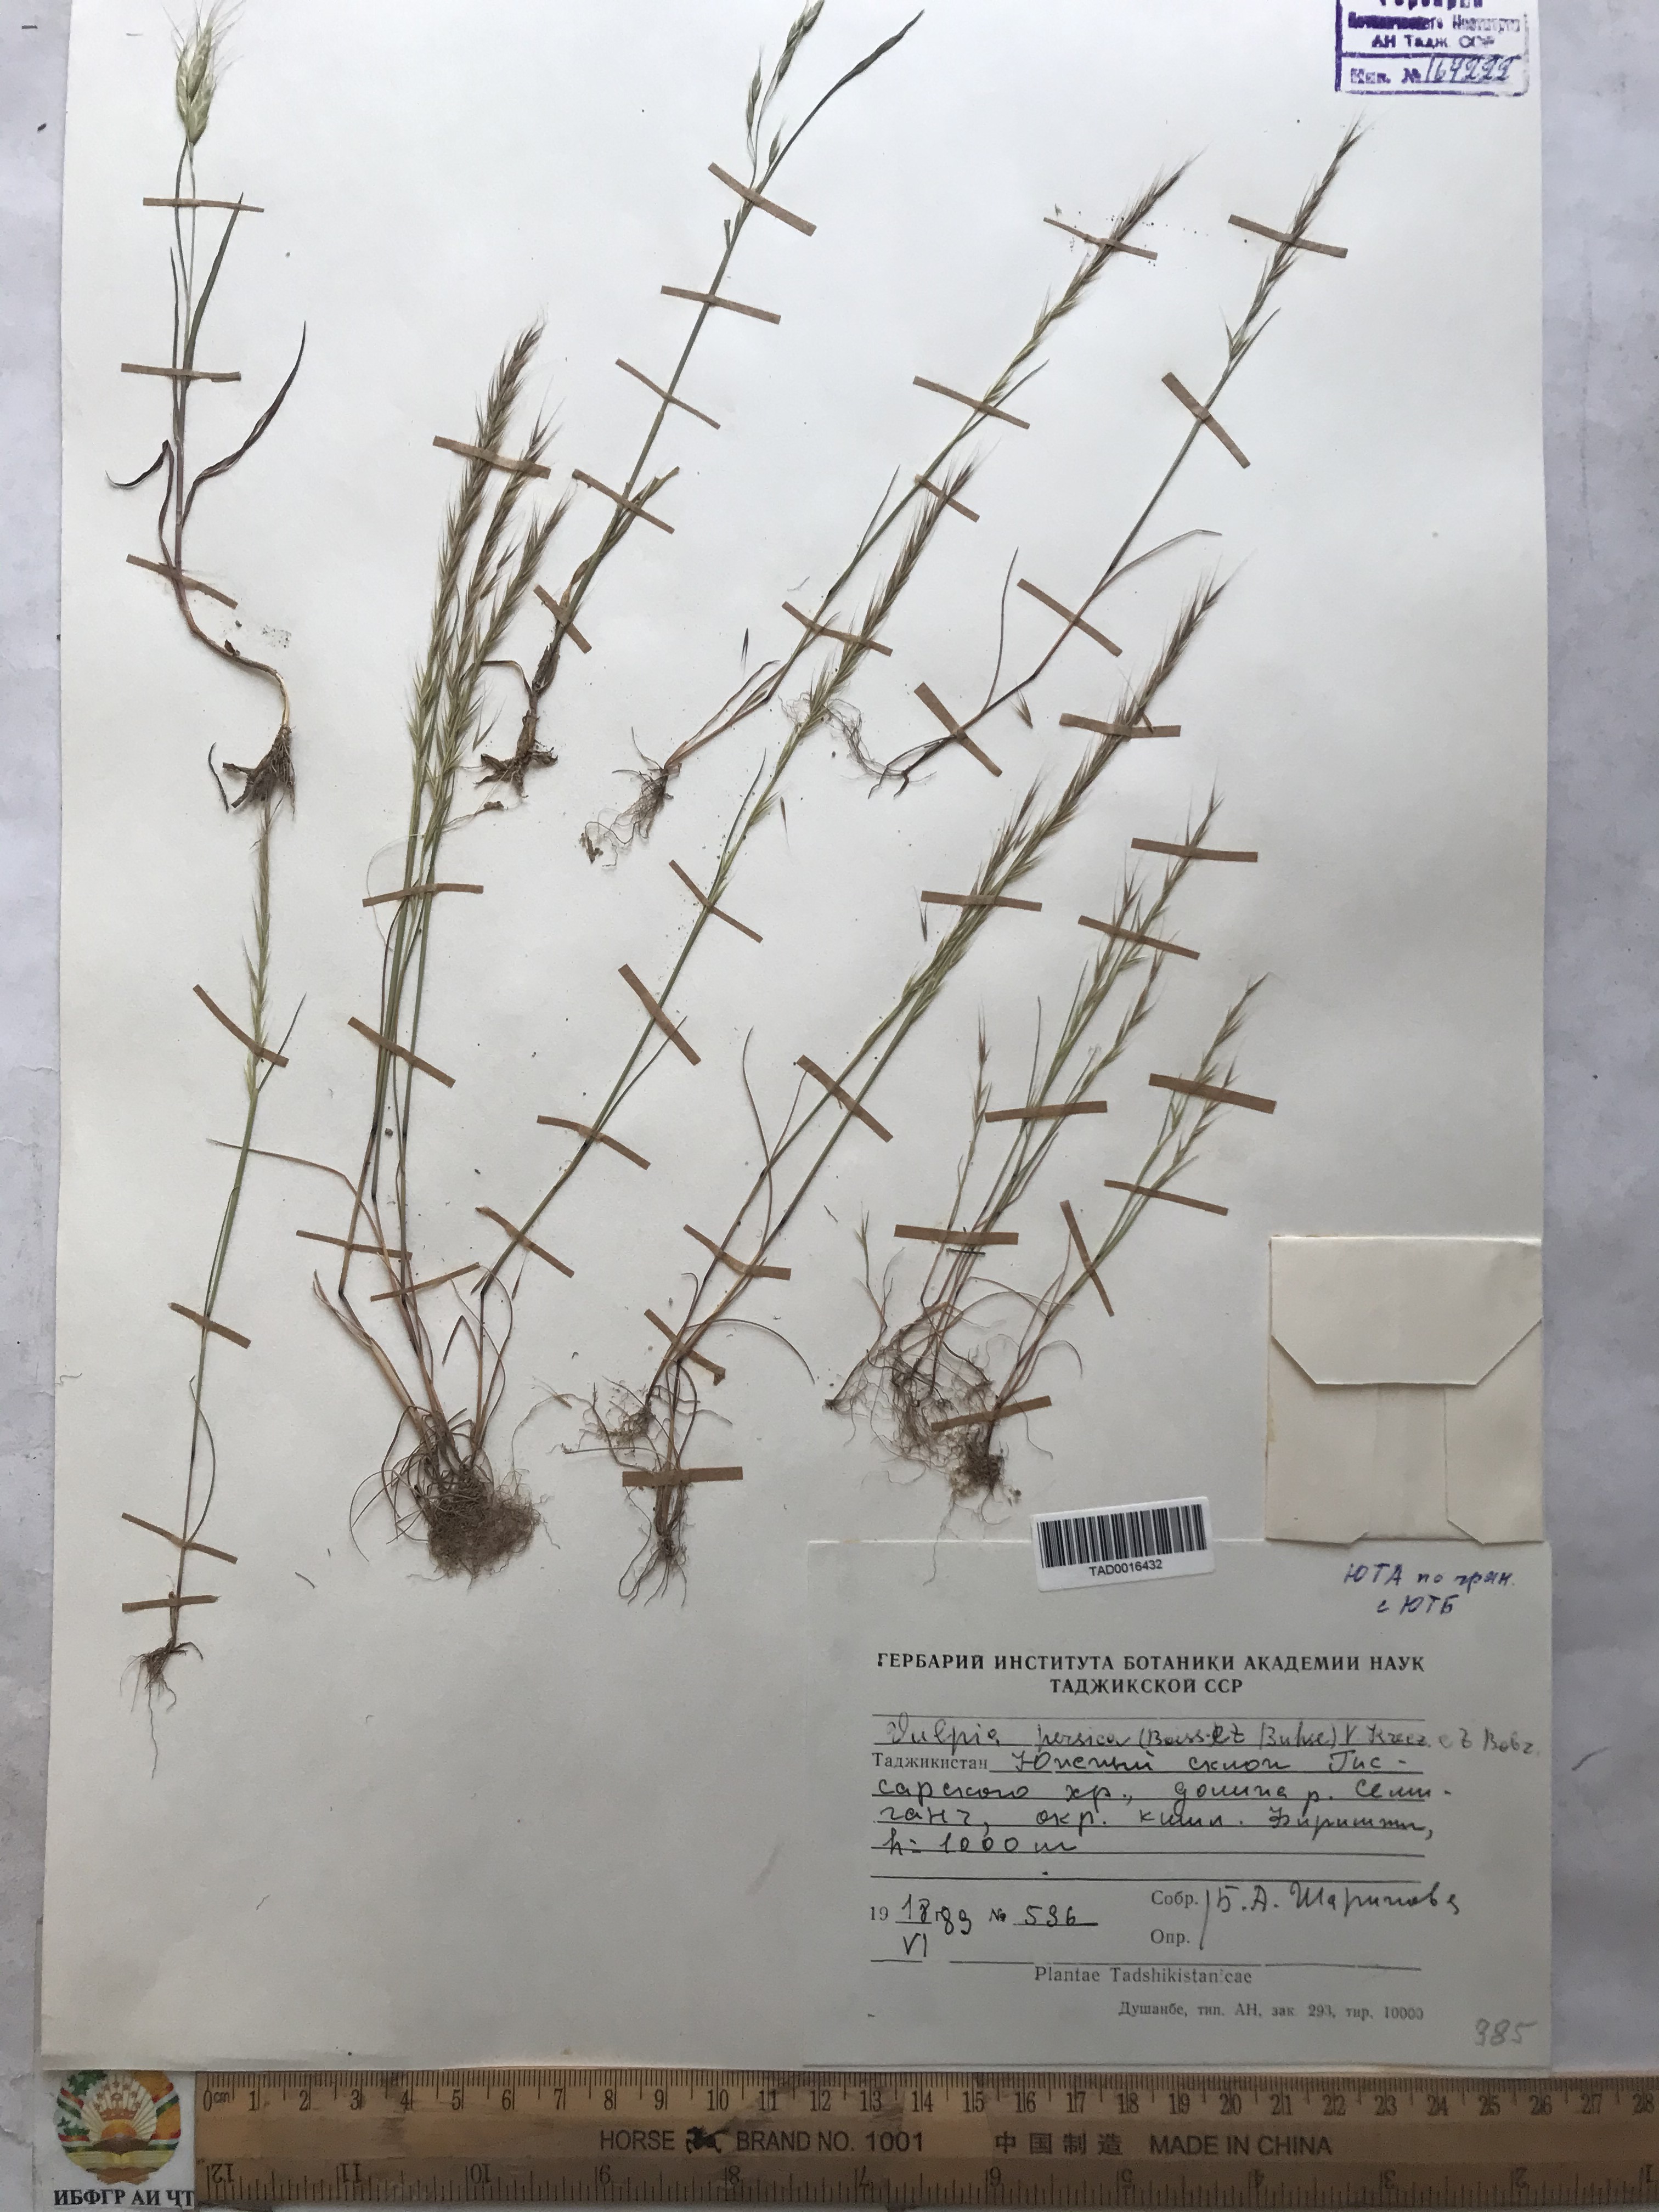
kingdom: Plantae
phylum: Tracheophyta
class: Liliopsida
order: Poales
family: Poaceae
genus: Festuca
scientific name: Festuca Vulpia persica
